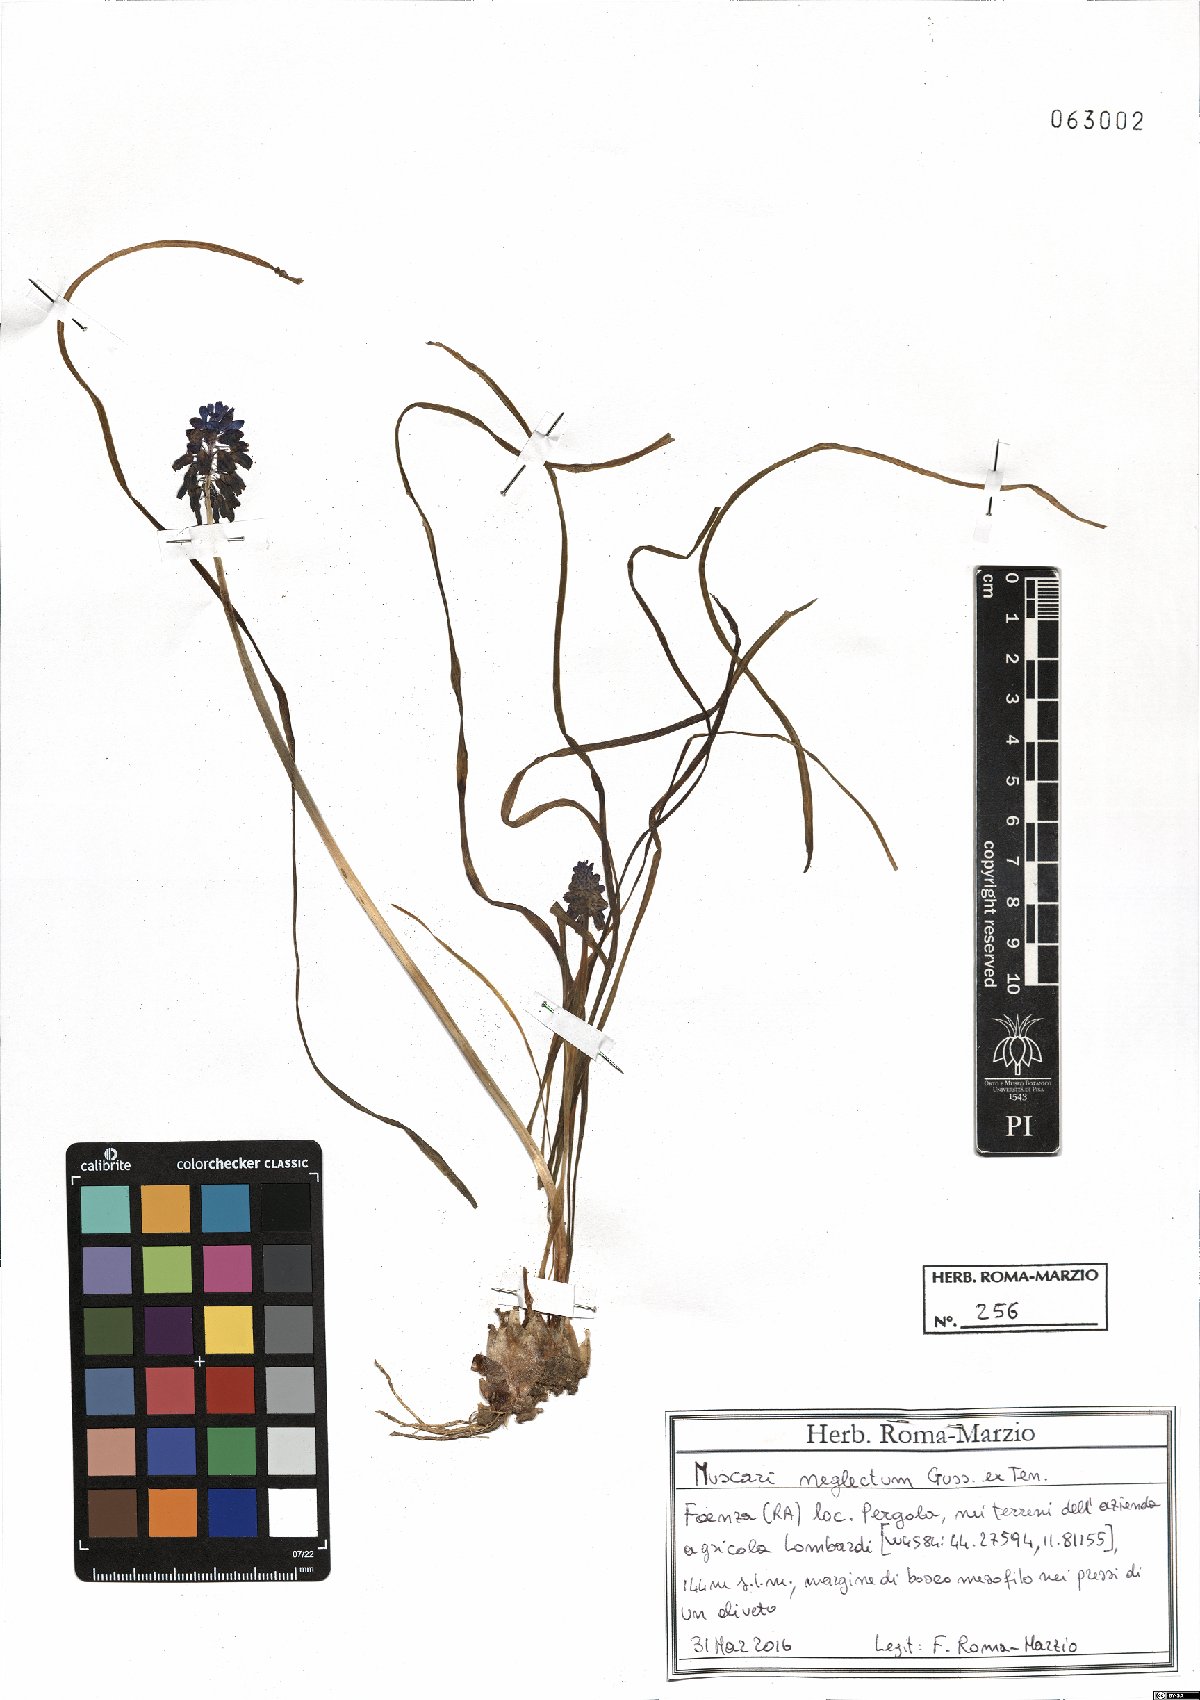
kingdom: Plantae
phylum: Tracheophyta
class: Liliopsida
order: Asparagales
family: Asparagaceae
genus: Muscari
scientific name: Muscari neglectum
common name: Grape-hyacinth
